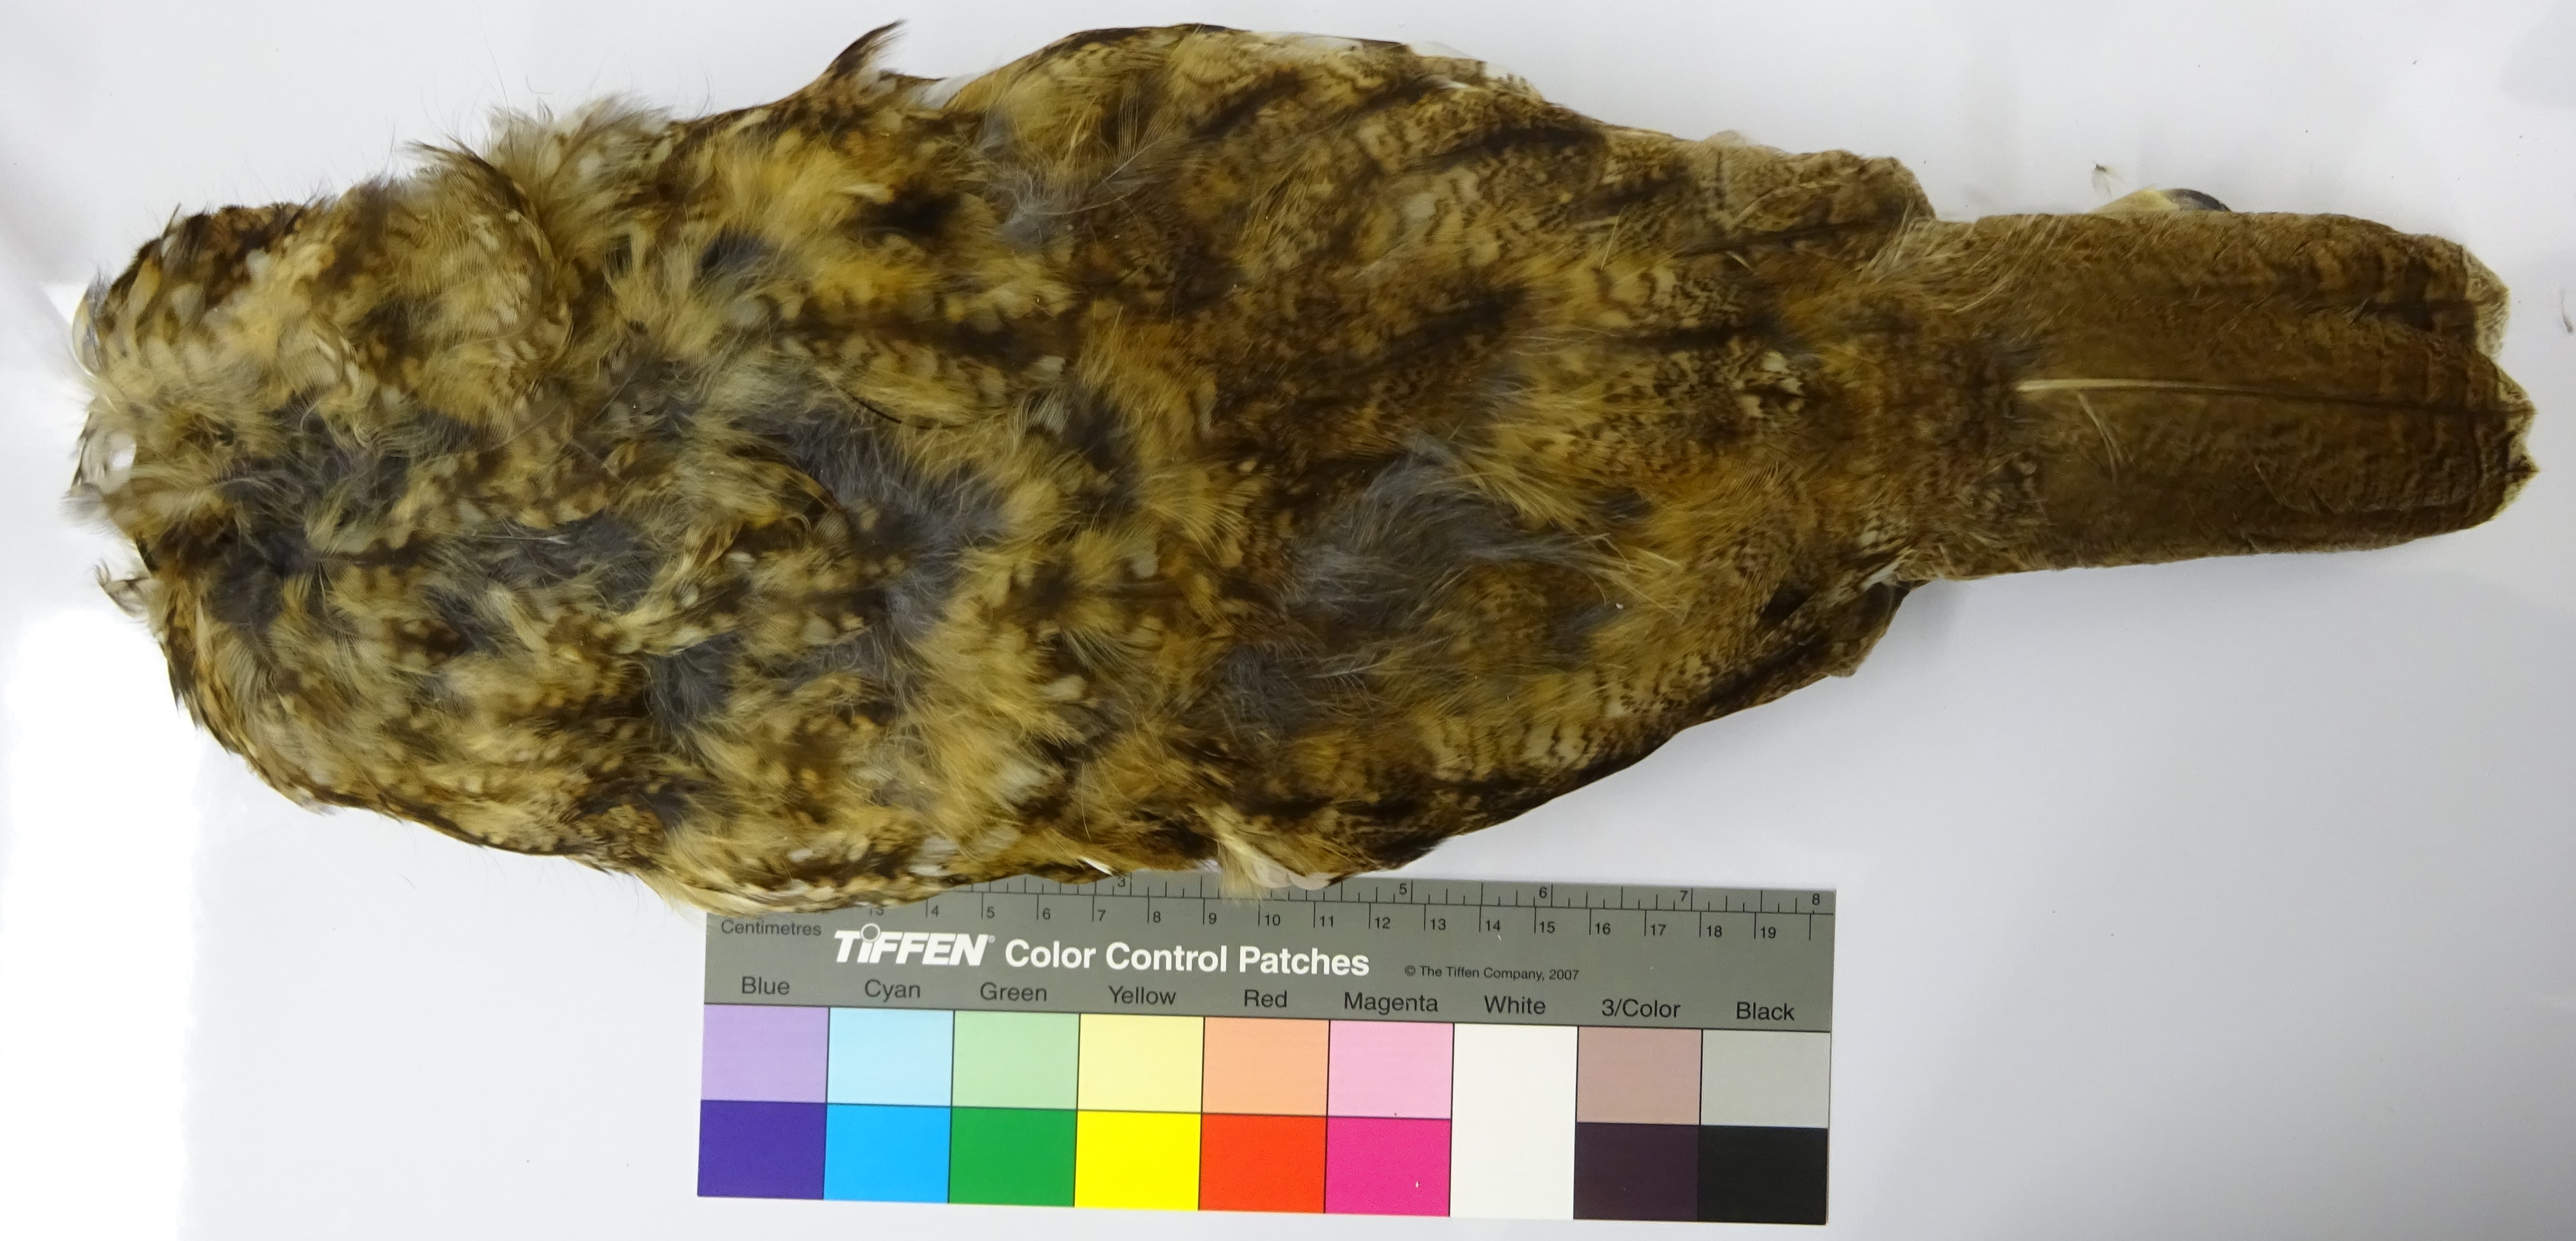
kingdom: Animalia
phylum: Chordata
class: Aves
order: Strigiformes
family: Strigidae
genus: Strix
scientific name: Strix aluco
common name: Tawny owl
